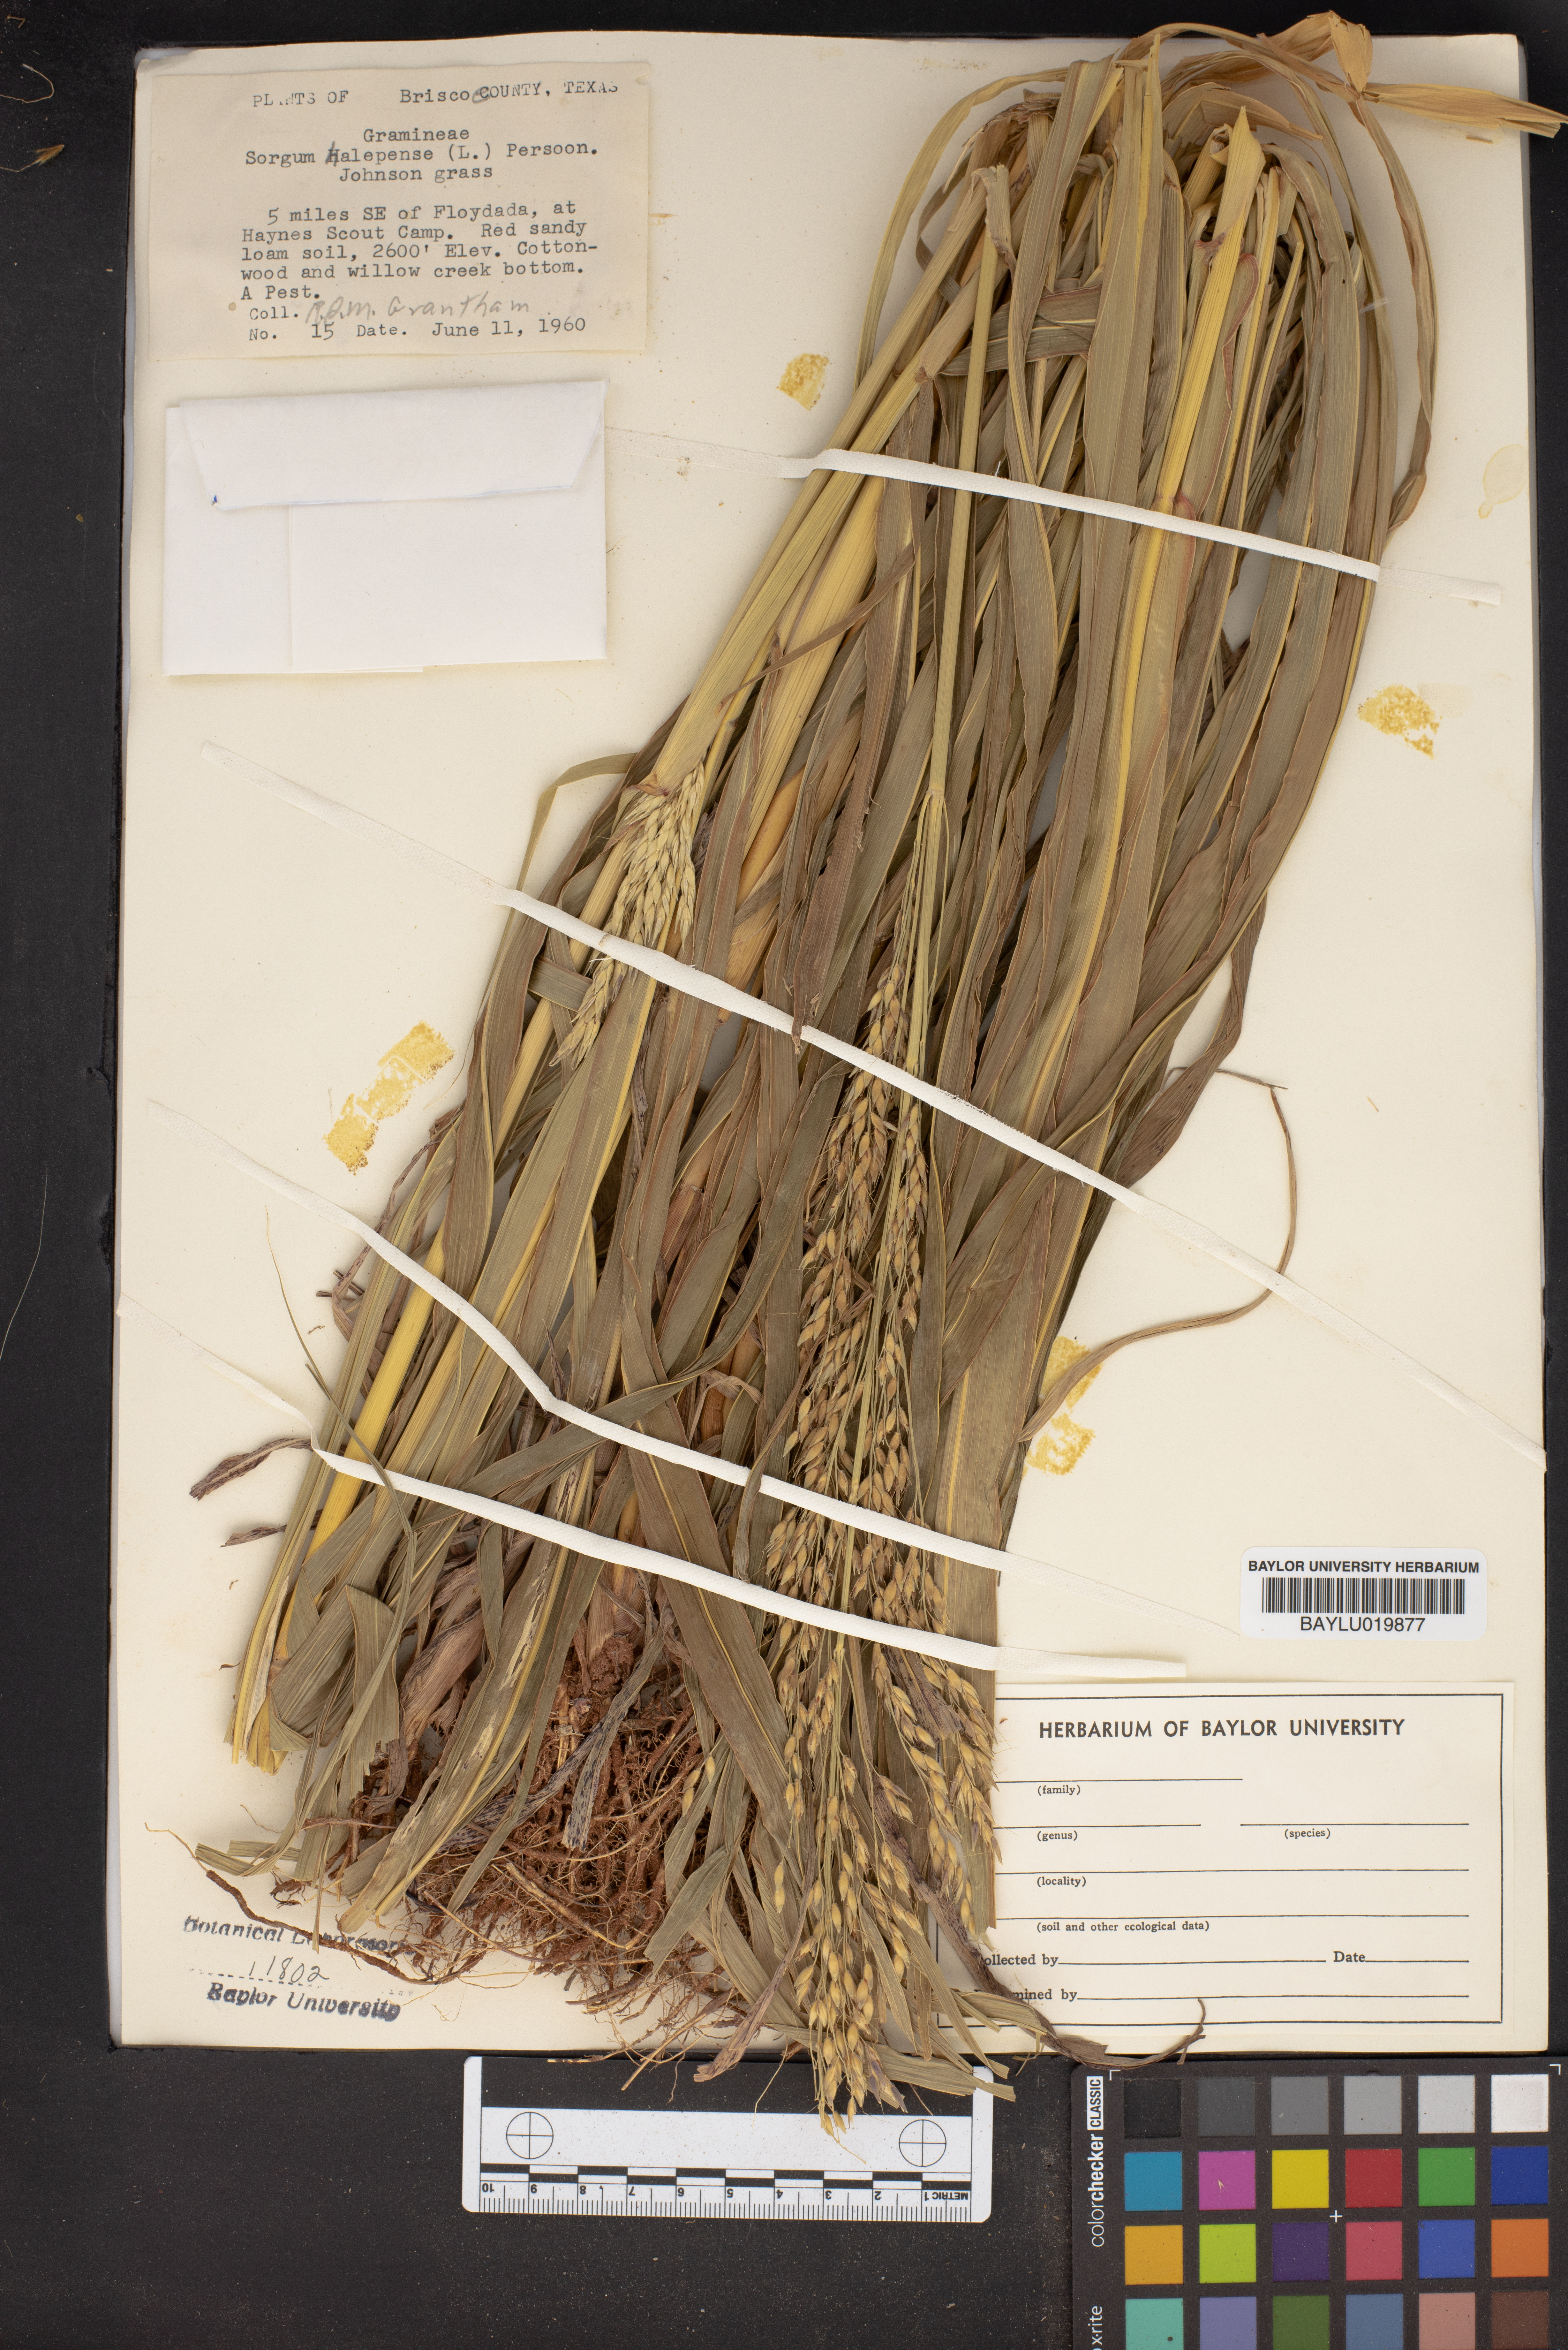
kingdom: Plantae
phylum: Tracheophyta
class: Liliopsida
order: Poales
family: Poaceae
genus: Sorghum
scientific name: Sorghum halepense
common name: Johnson-grass
